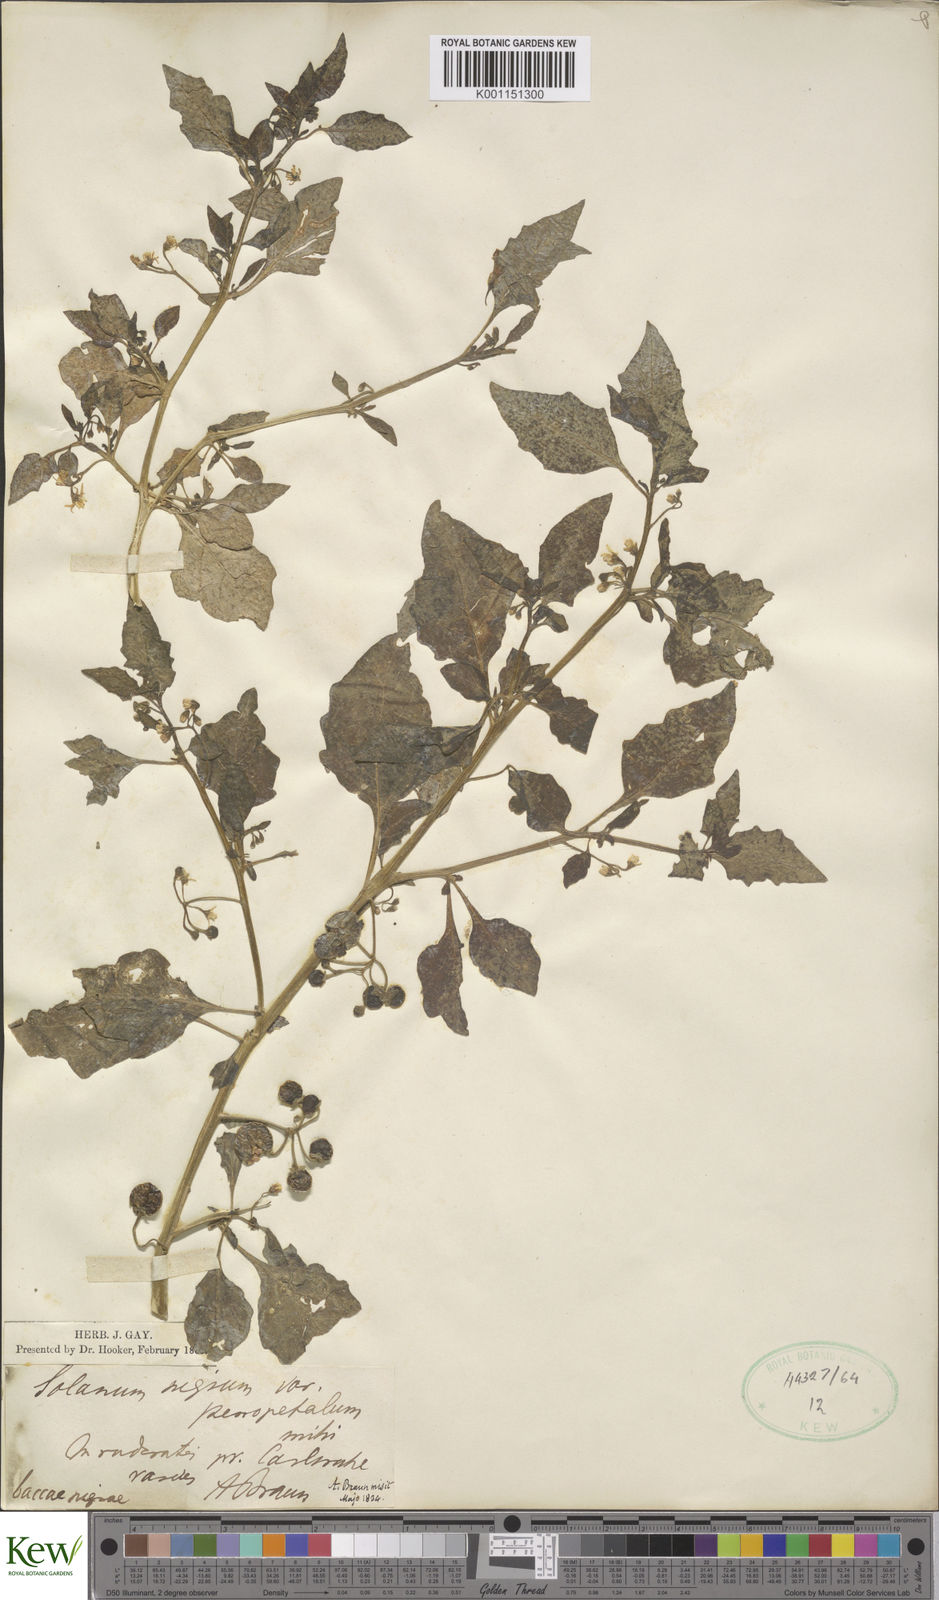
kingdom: Plantae
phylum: Tracheophyta
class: Magnoliopsida
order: Solanales
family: Solanaceae
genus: Solanum
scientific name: Solanum nigrum
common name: Black nightshade
